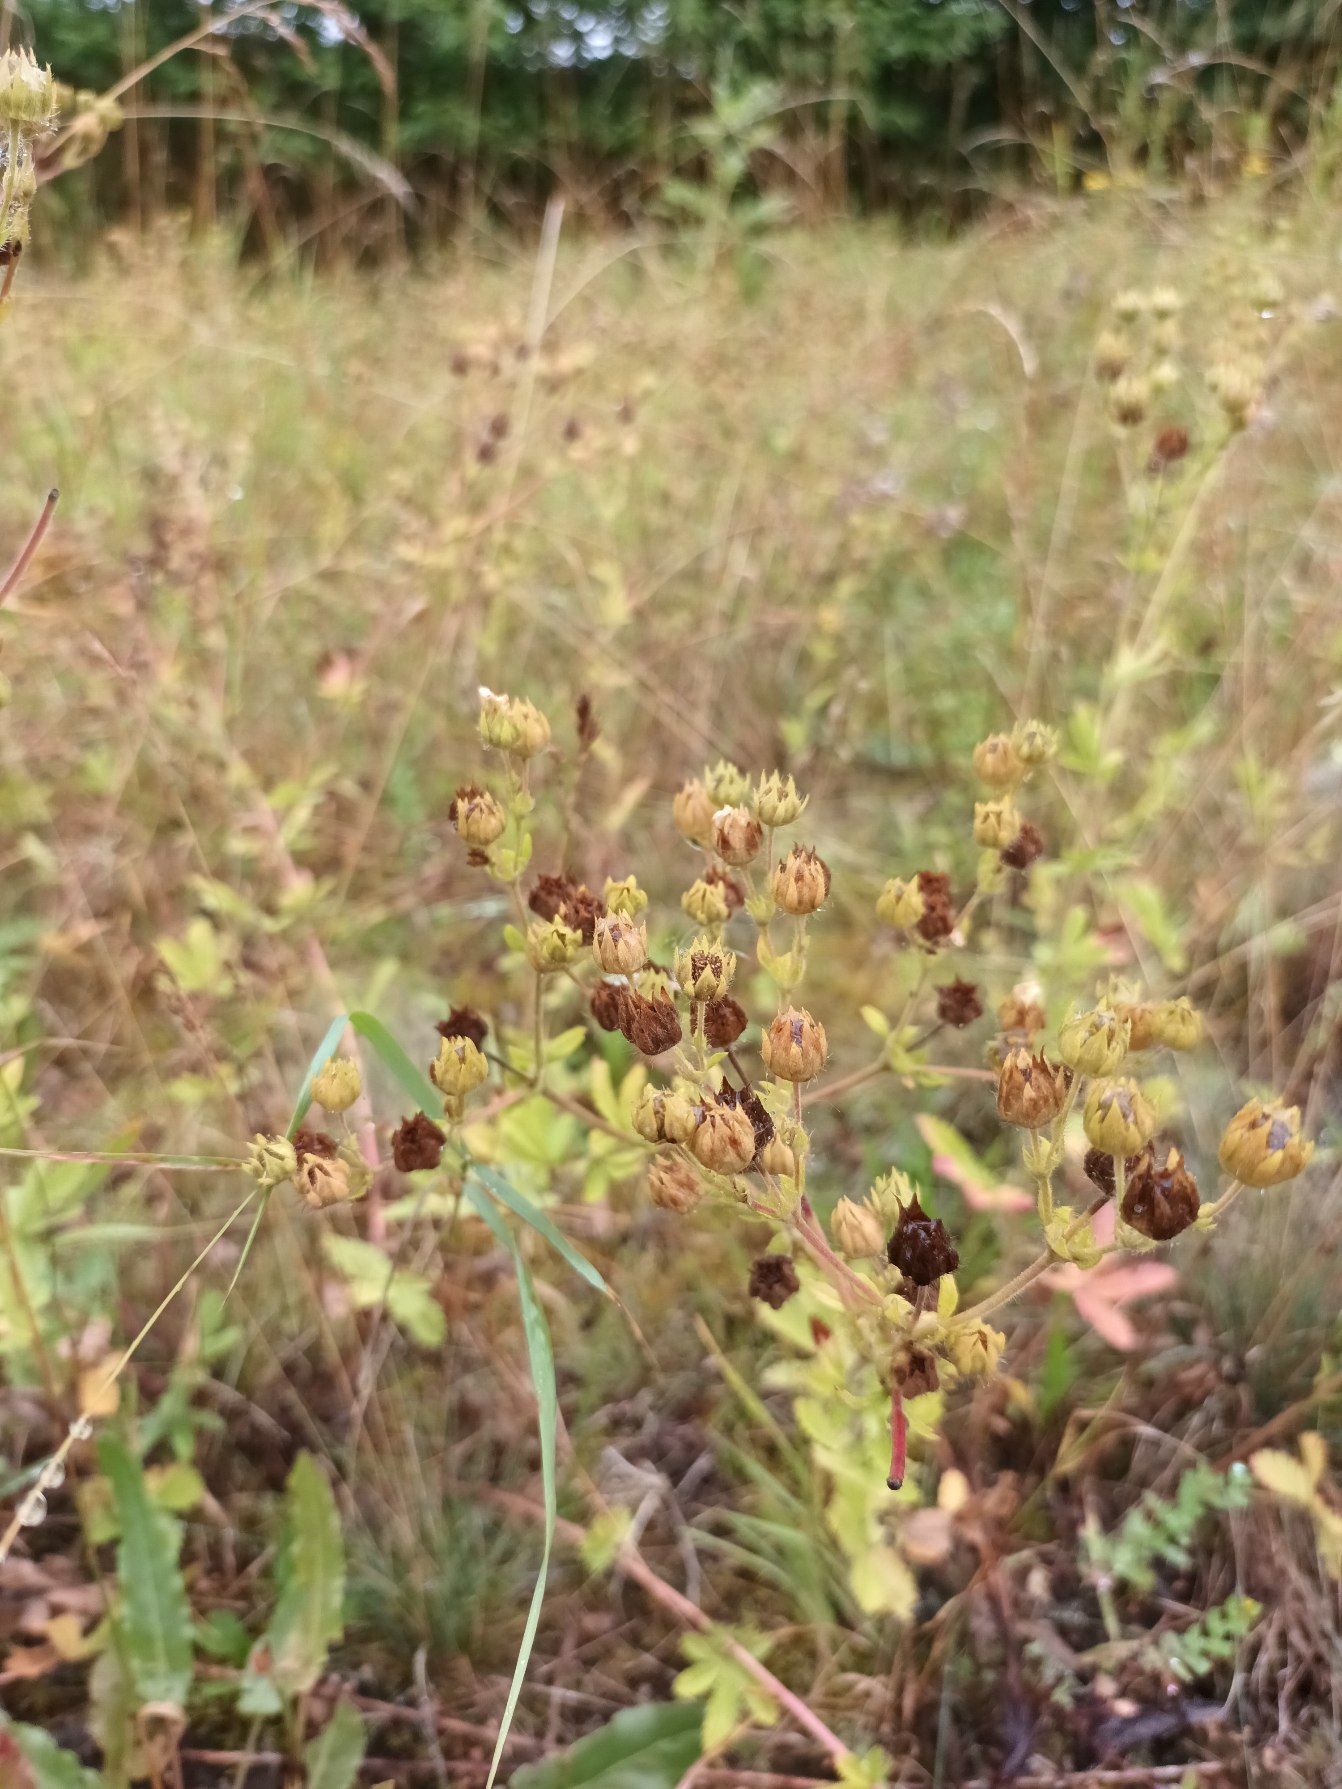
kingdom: Plantae
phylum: Tracheophyta
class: Magnoliopsida
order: Rosales
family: Rosaceae
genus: Potentilla
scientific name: Potentilla recta
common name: Rank potentil
